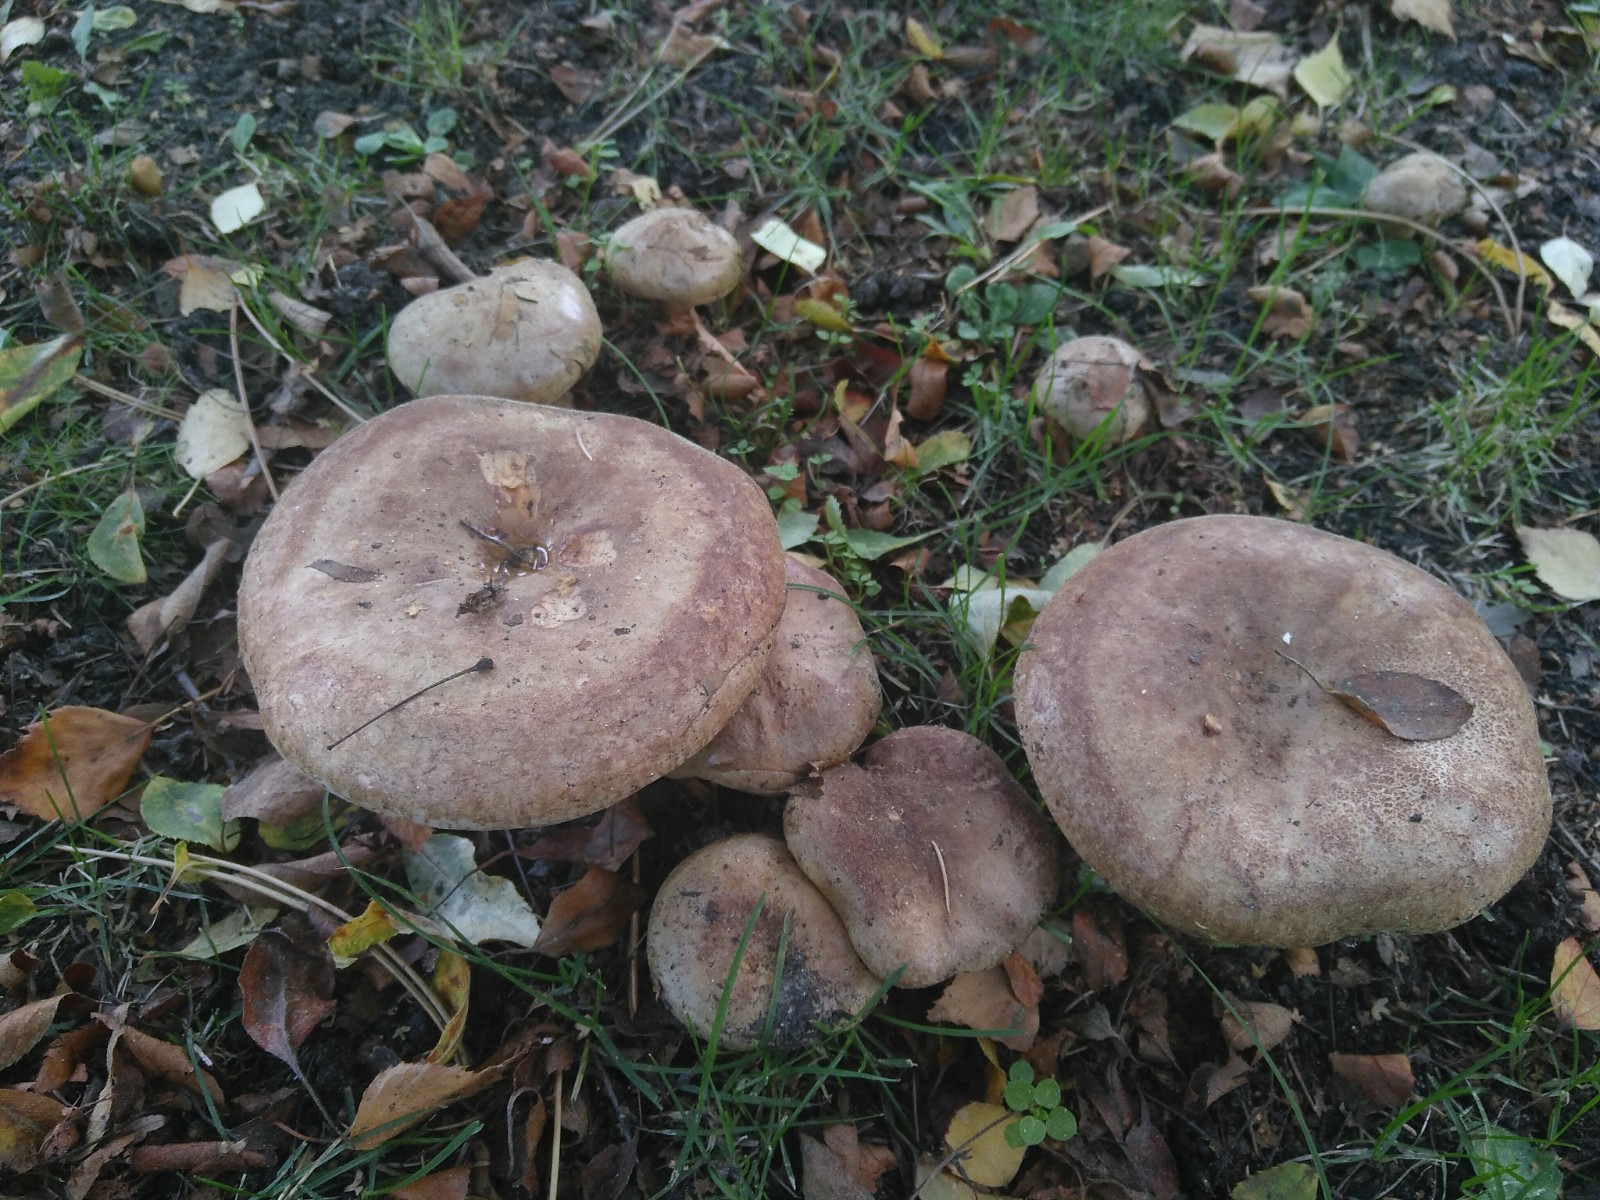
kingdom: Fungi
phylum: Basidiomycota
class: Agaricomycetes
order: Boletales
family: Paxillaceae
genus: Paxillus
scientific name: Paxillus involutus
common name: almindelig netbladhat
